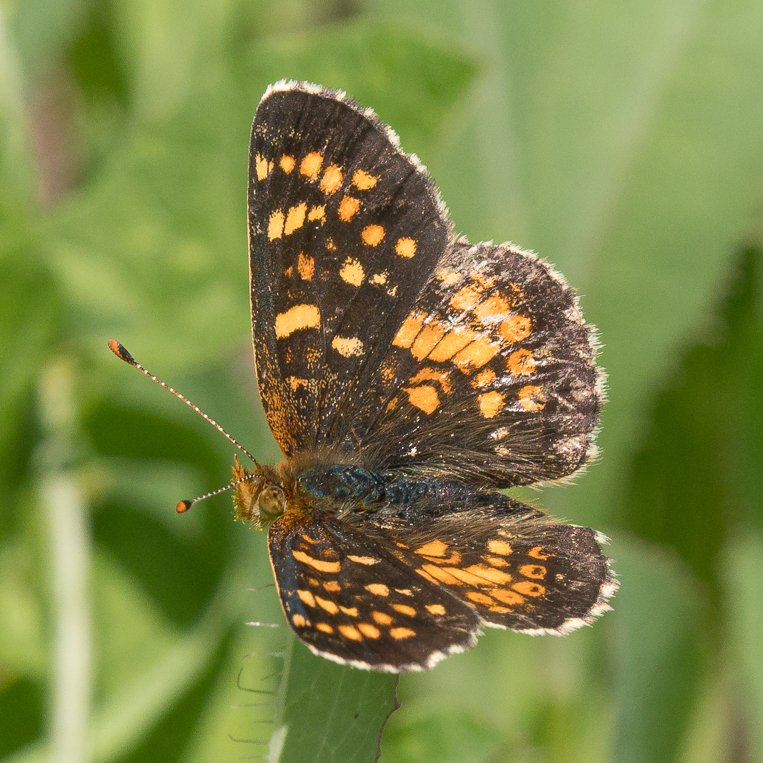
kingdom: Animalia
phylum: Arthropoda
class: Insecta
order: Lepidoptera
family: Nymphalidae
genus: Phyciodes
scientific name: Phyciodes tharos
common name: Field Crescent
